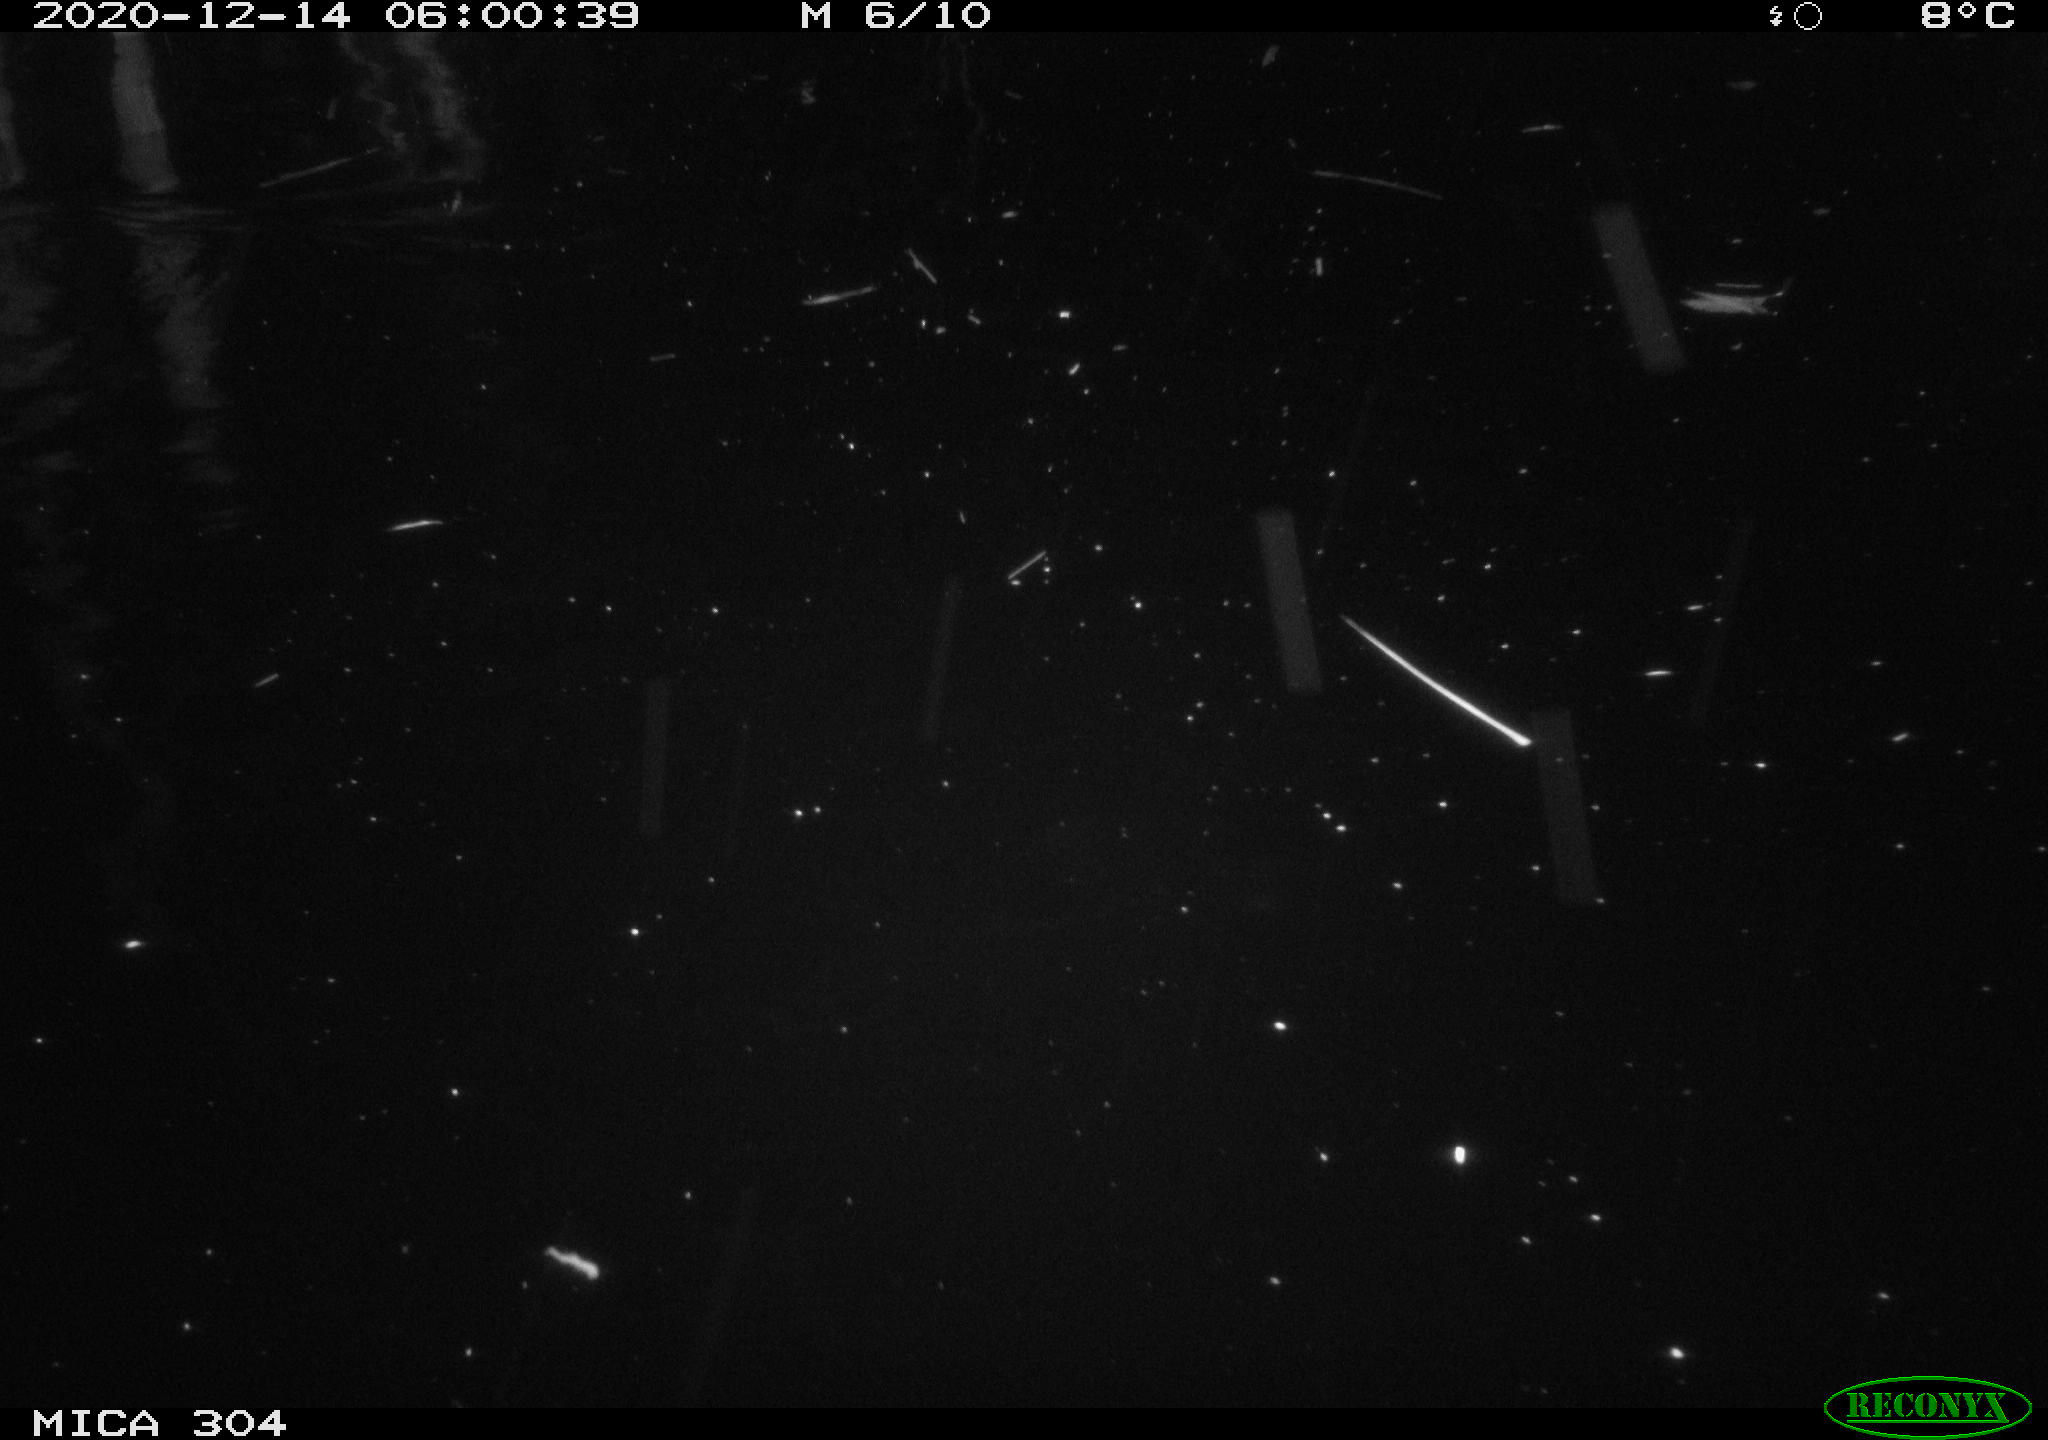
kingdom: Animalia
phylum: Chordata
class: Mammalia
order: Rodentia
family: Muridae
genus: Rattus
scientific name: Rattus norvegicus
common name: Brown rat
